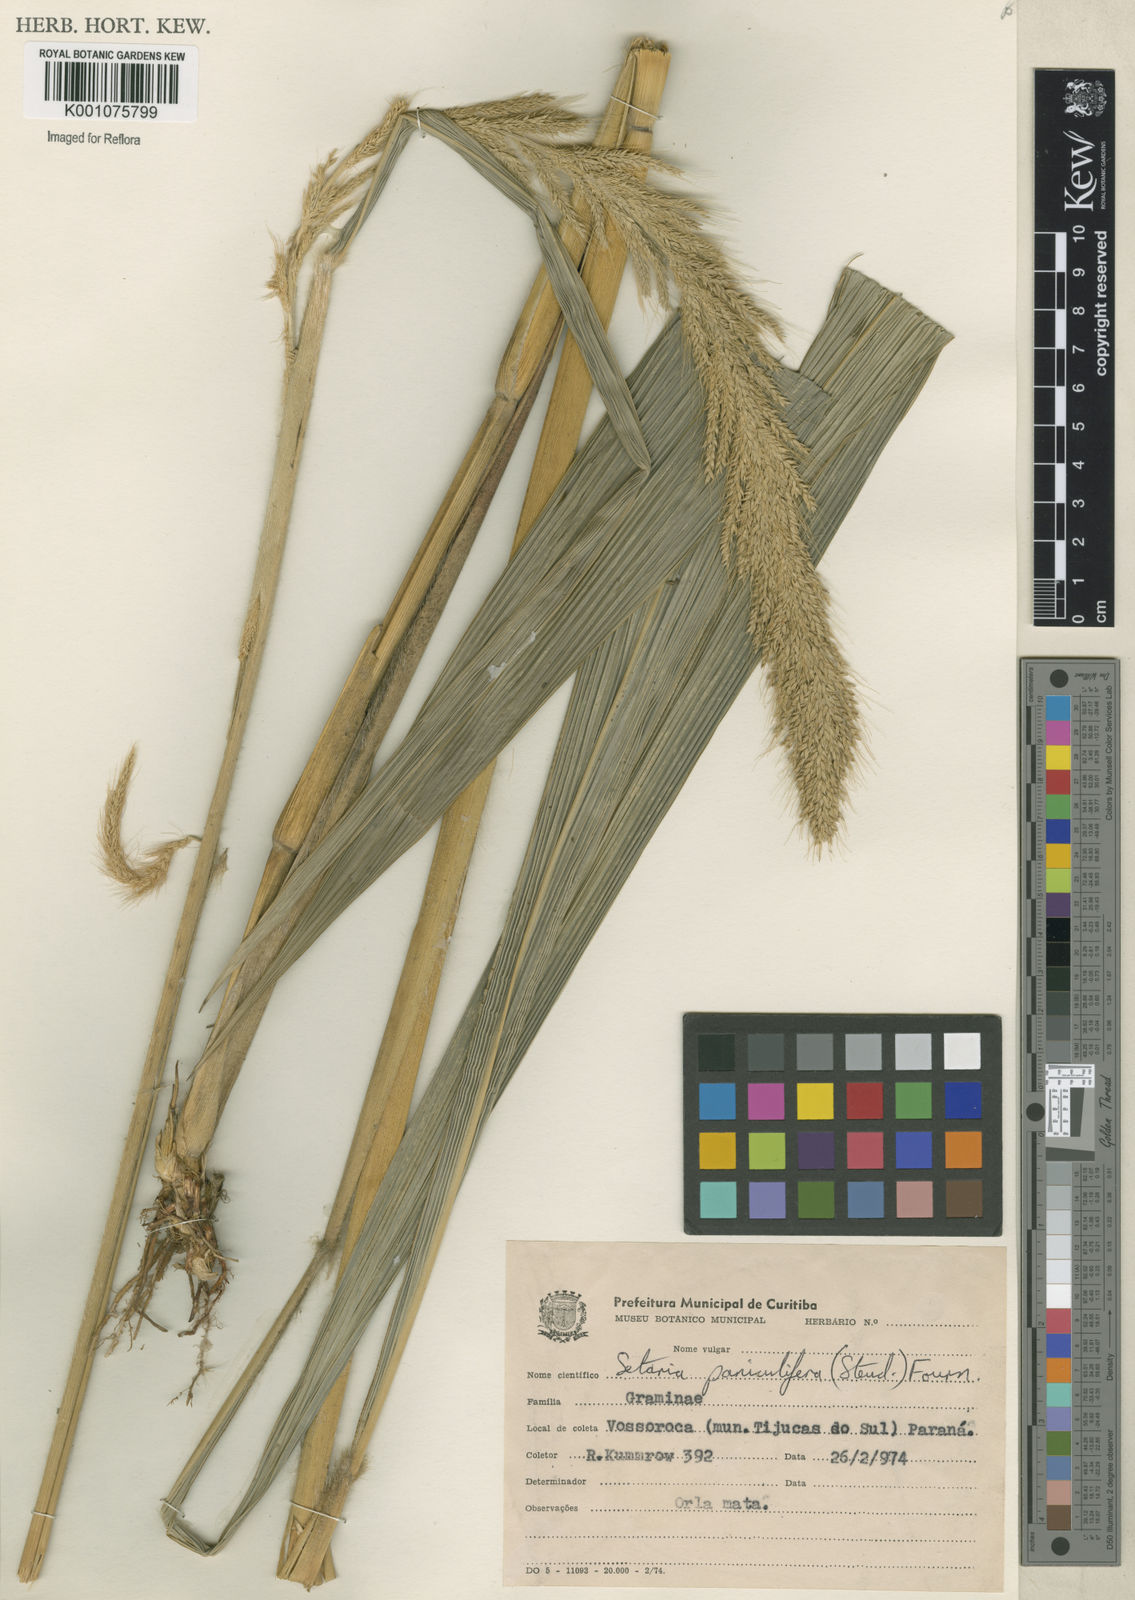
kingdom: Plantae
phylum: Tracheophyta
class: Liliopsida
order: Poales
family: Poaceae
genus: Setaria
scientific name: Setaria megaphylla
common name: Bigleaf bristlegrass
